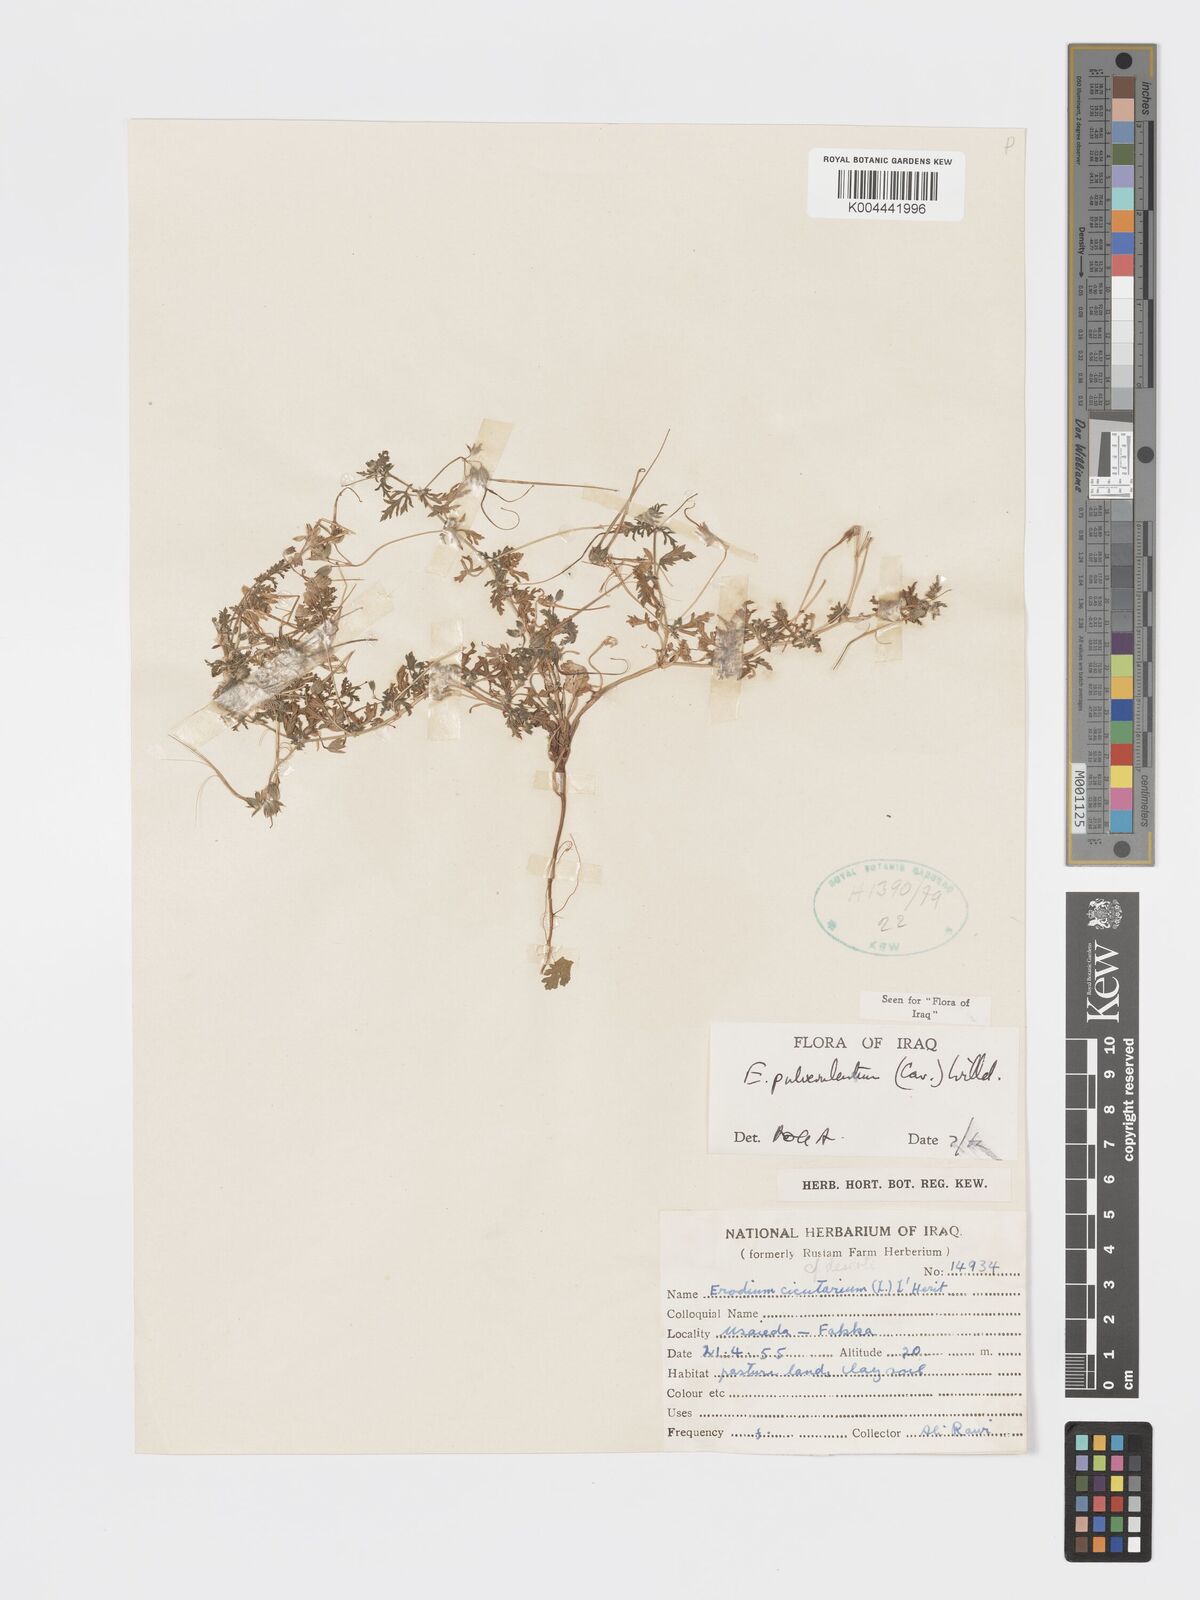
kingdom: Plantae
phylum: Tracheophyta
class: Magnoliopsida
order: Geraniales
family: Geraniaceae
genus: Erodium
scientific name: Erodium laciniatum
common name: Cutleaf stork's bill
